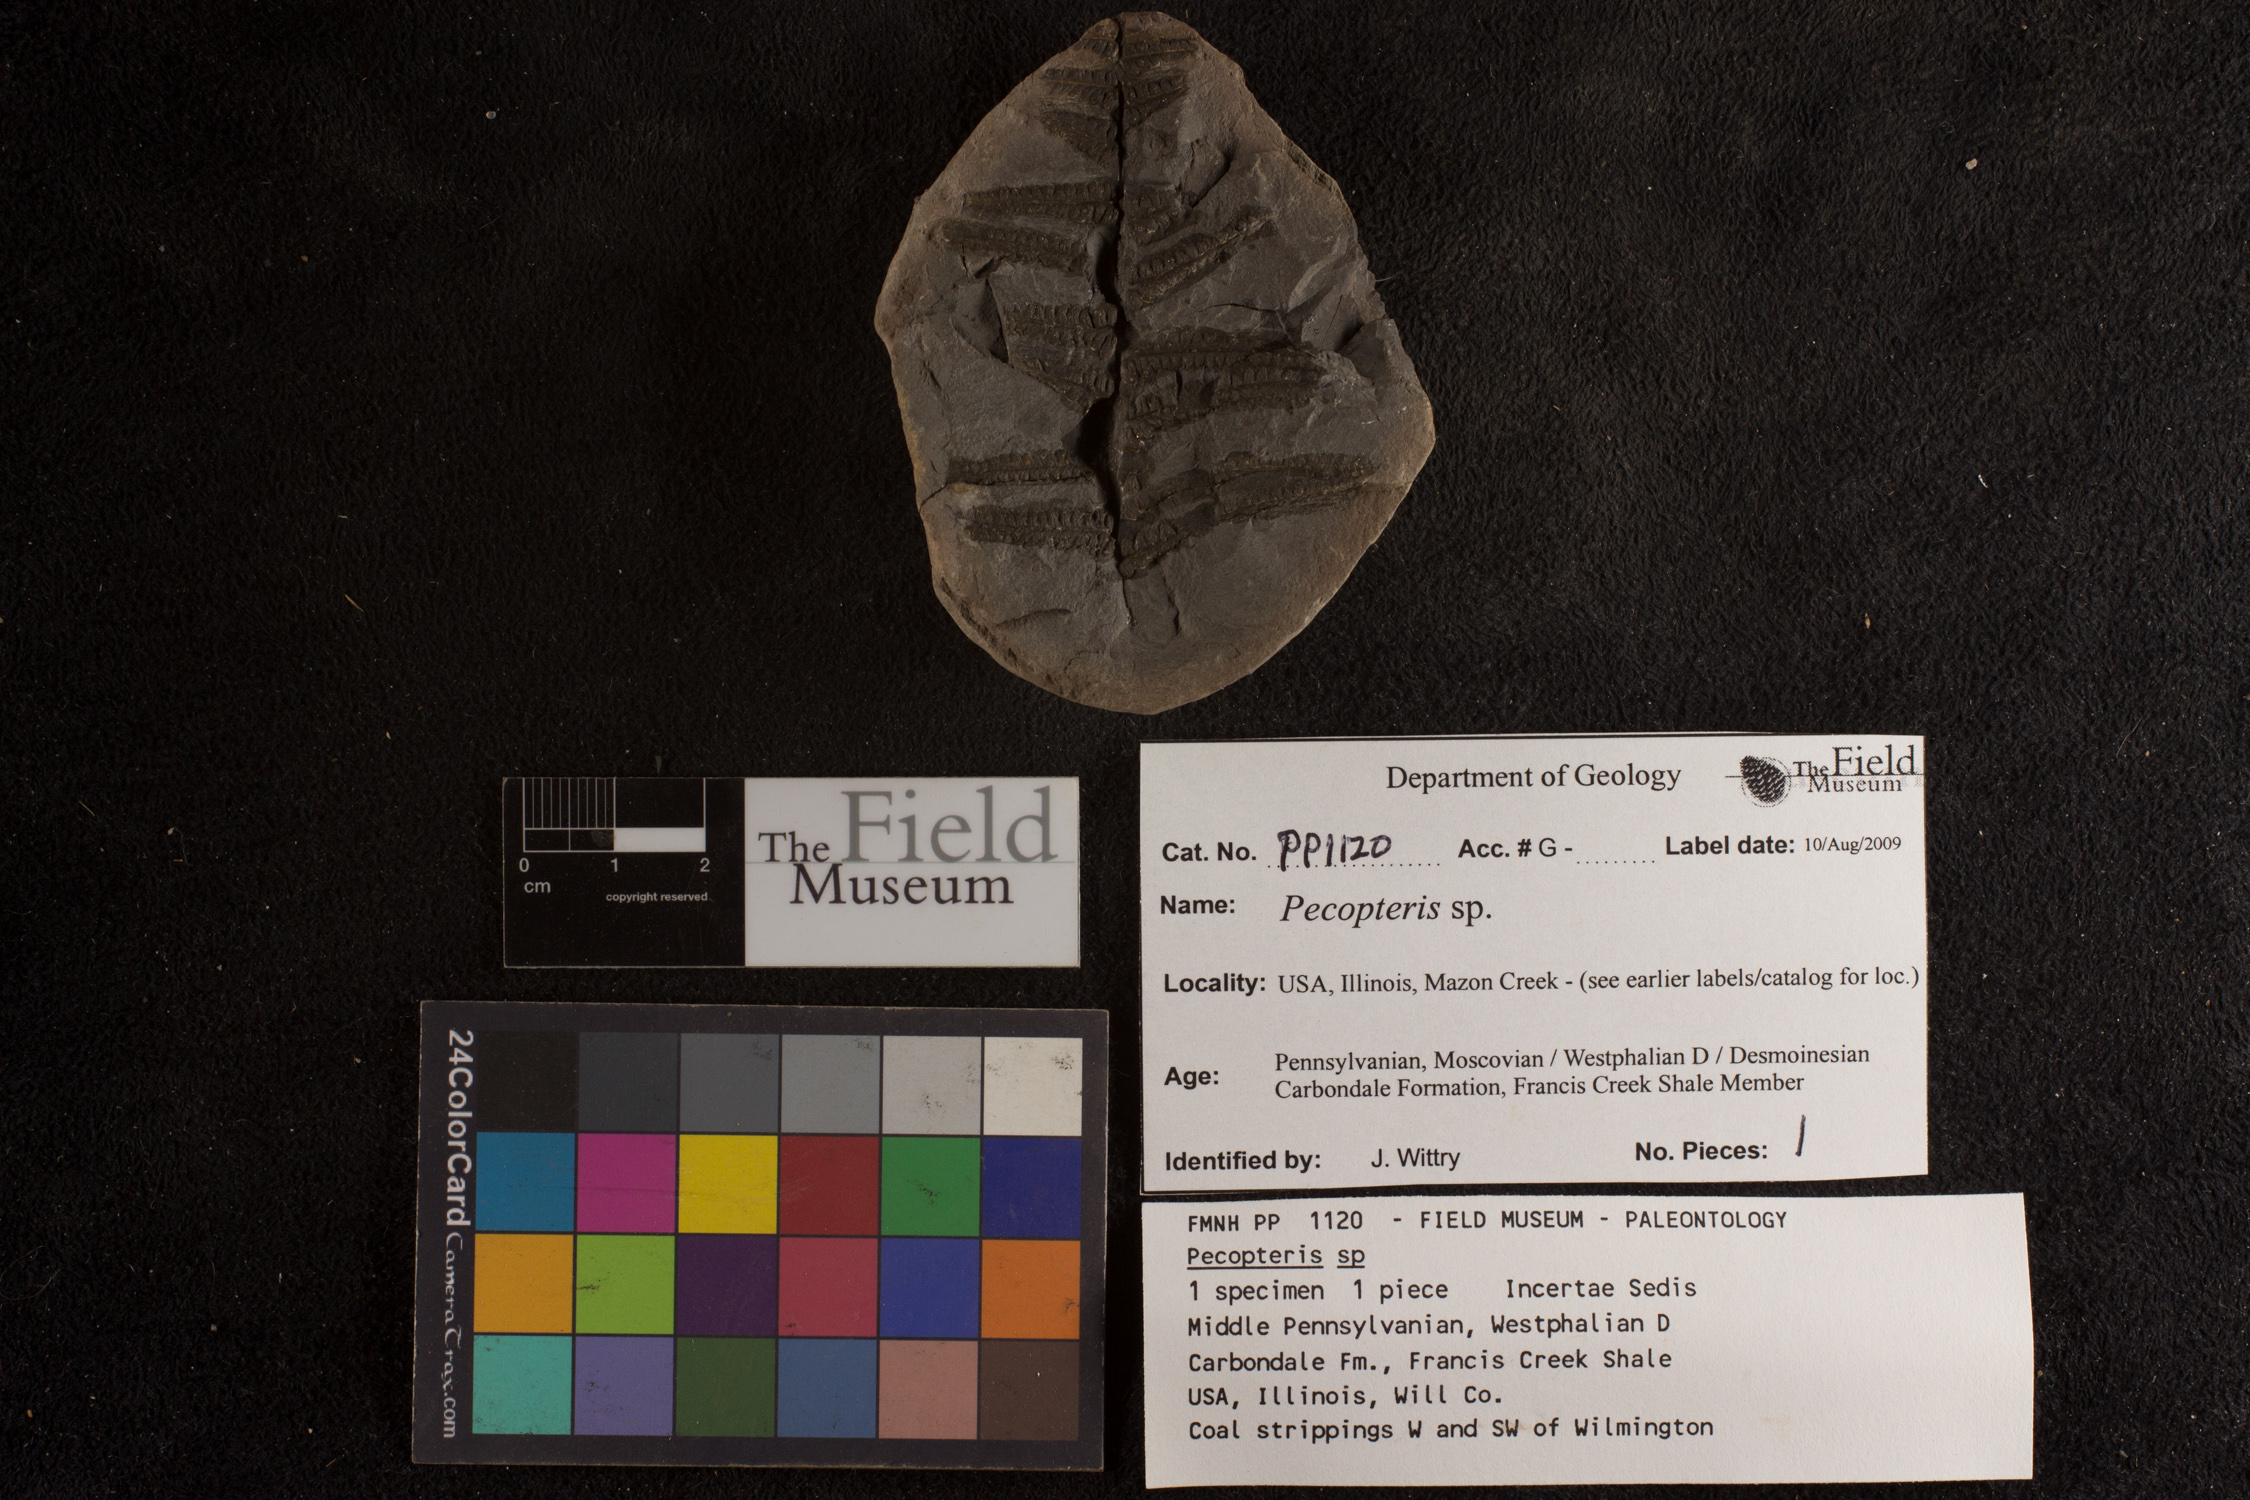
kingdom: Plantae
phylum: Tracheophyta
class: Polypodiopsida
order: Marattiales
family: Asterothecaceae
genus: Pecopteris
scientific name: Pecopteris
